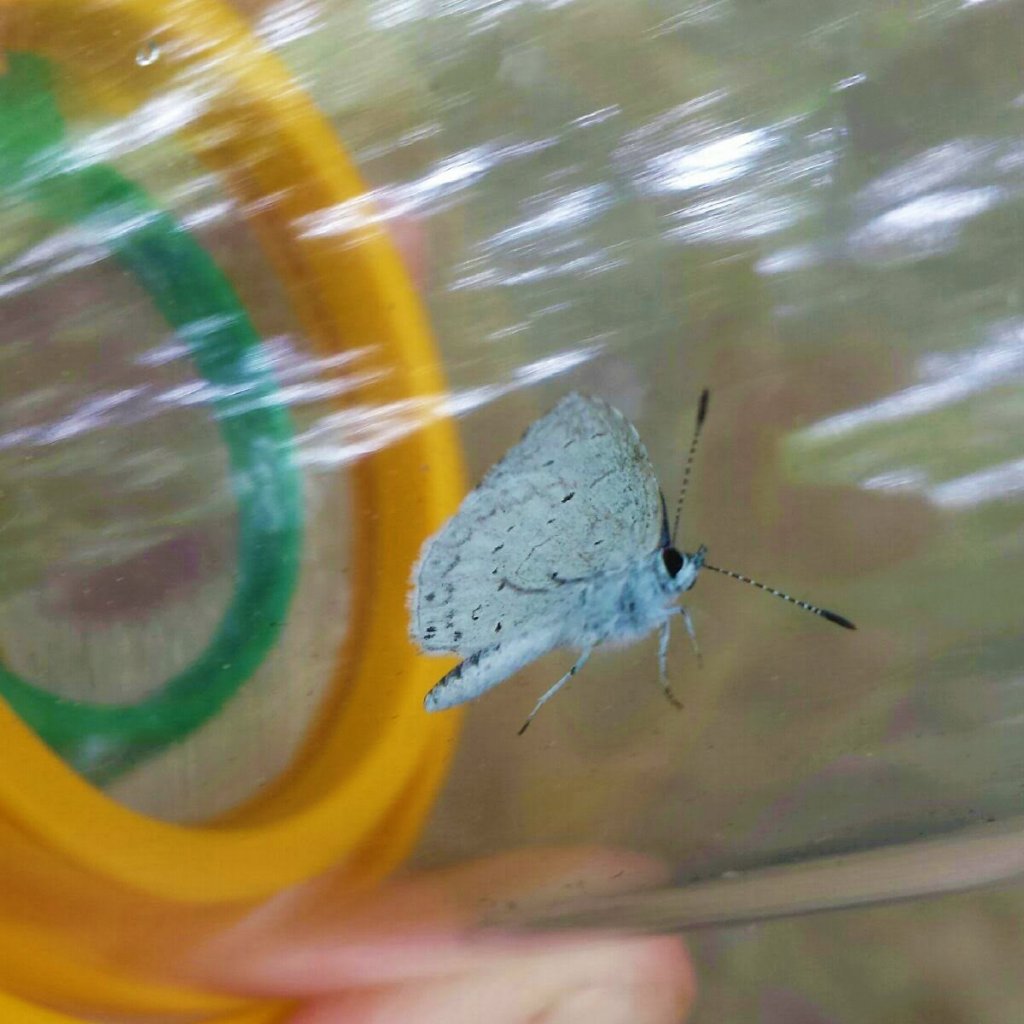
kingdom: Animalia
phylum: Arthropoda
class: Insecta
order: Lepidoptera
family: Lycaenidae
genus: Cyaniris
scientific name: Cyaniris neglecta
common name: Summer Azure
